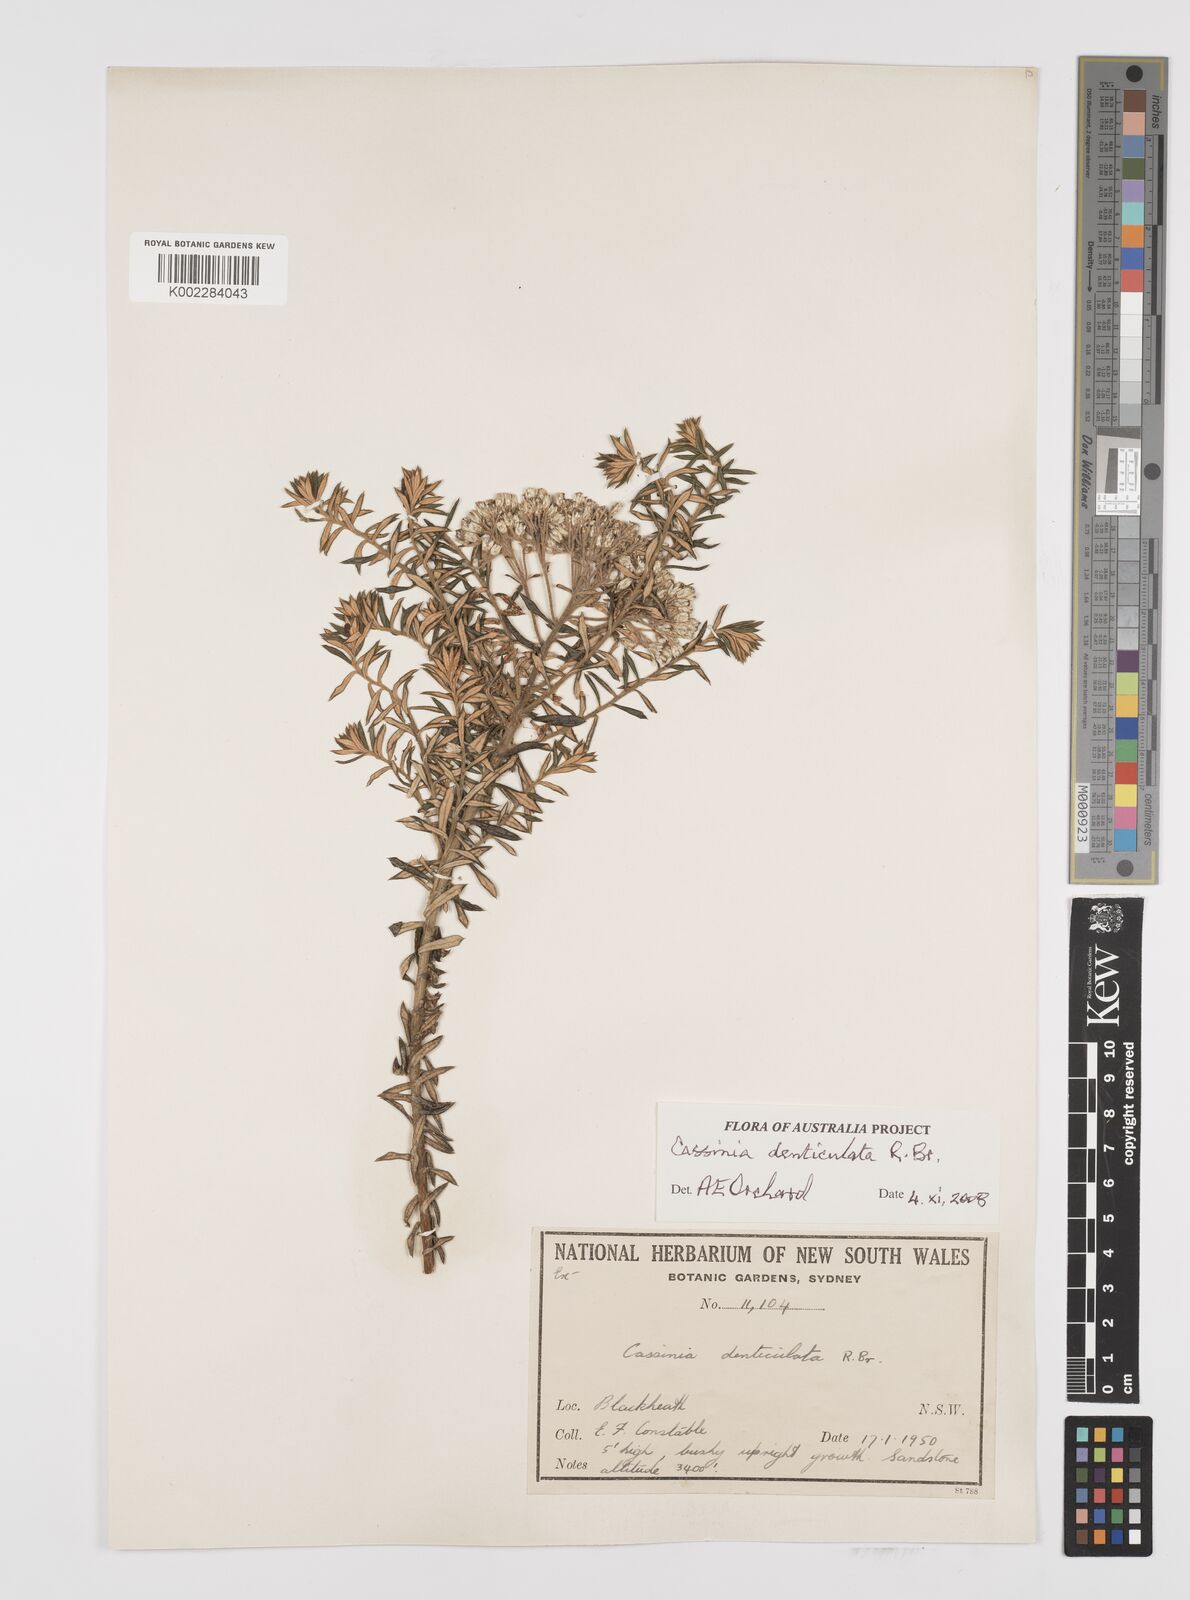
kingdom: Plantae
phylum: Tracheophyta
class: Magnoliopsida
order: Asterales
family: Asteraceae
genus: Cassinia
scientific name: Cassinia denticulata
